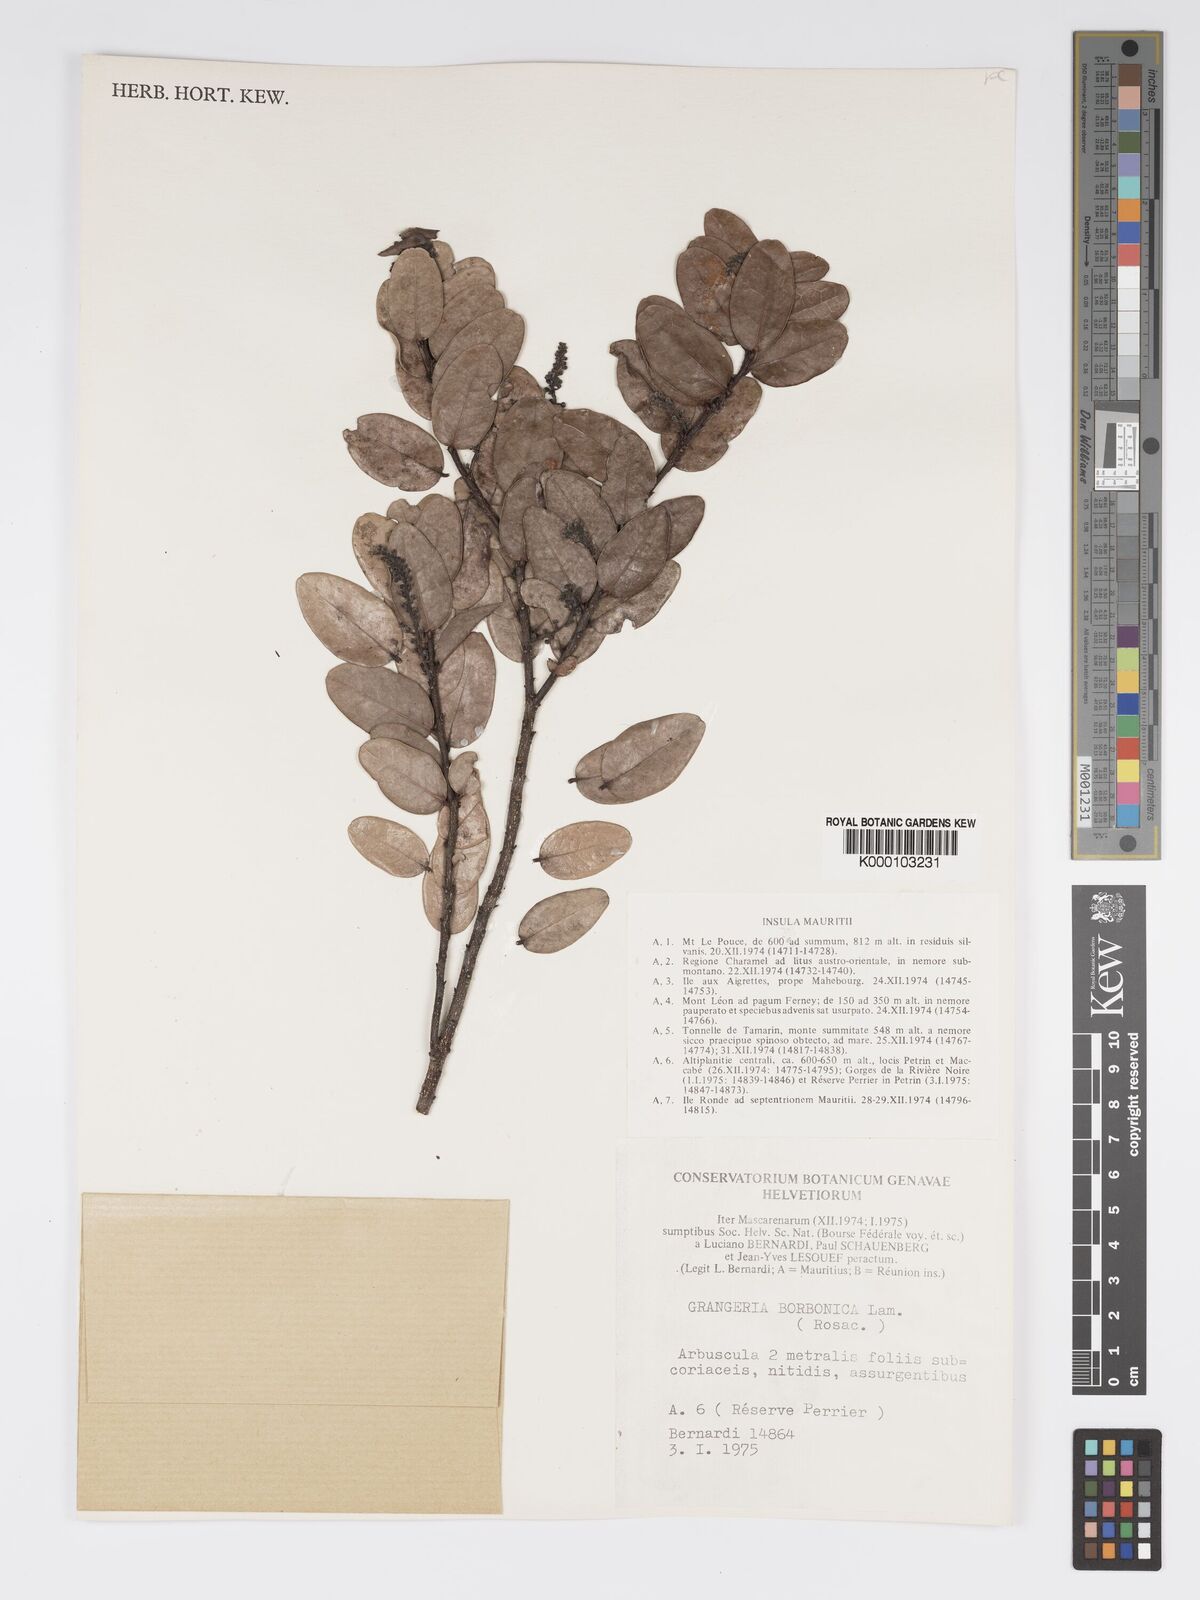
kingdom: Plantae
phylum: Tracheophyta
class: Magnoliopsida
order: Malpighiales
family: Chrysobalanaceae
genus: Grangeria
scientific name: Grangeria borbonica
